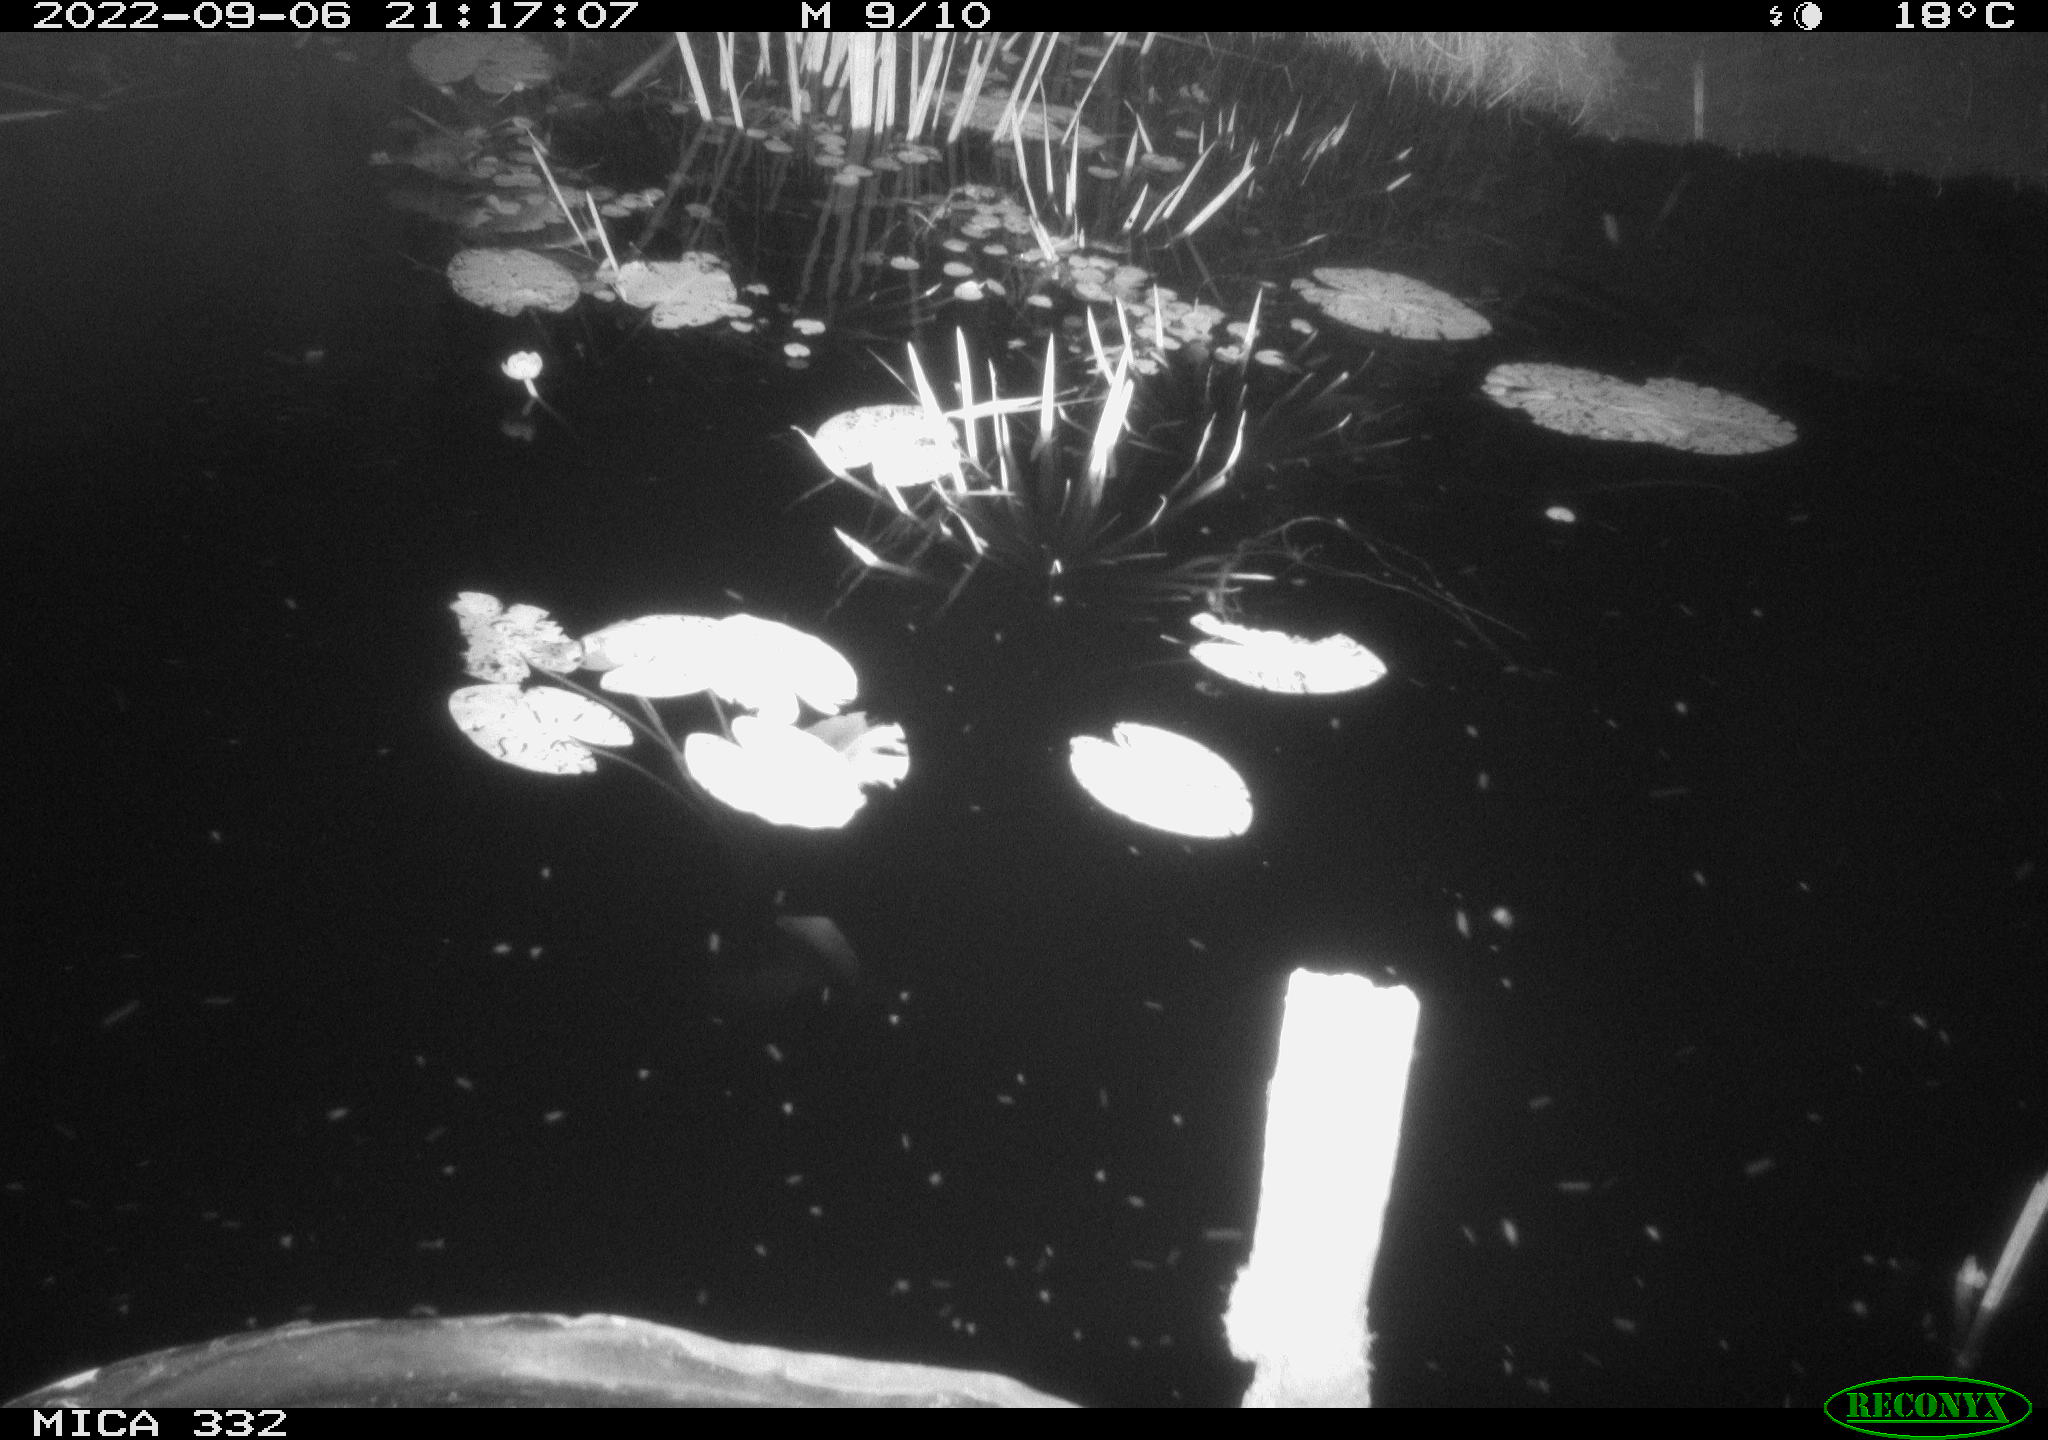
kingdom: Animalia
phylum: Chordata
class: Aves
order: Anseriformes
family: Anatidae
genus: Anas
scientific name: Anas platyrhynchos
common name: Mallard
